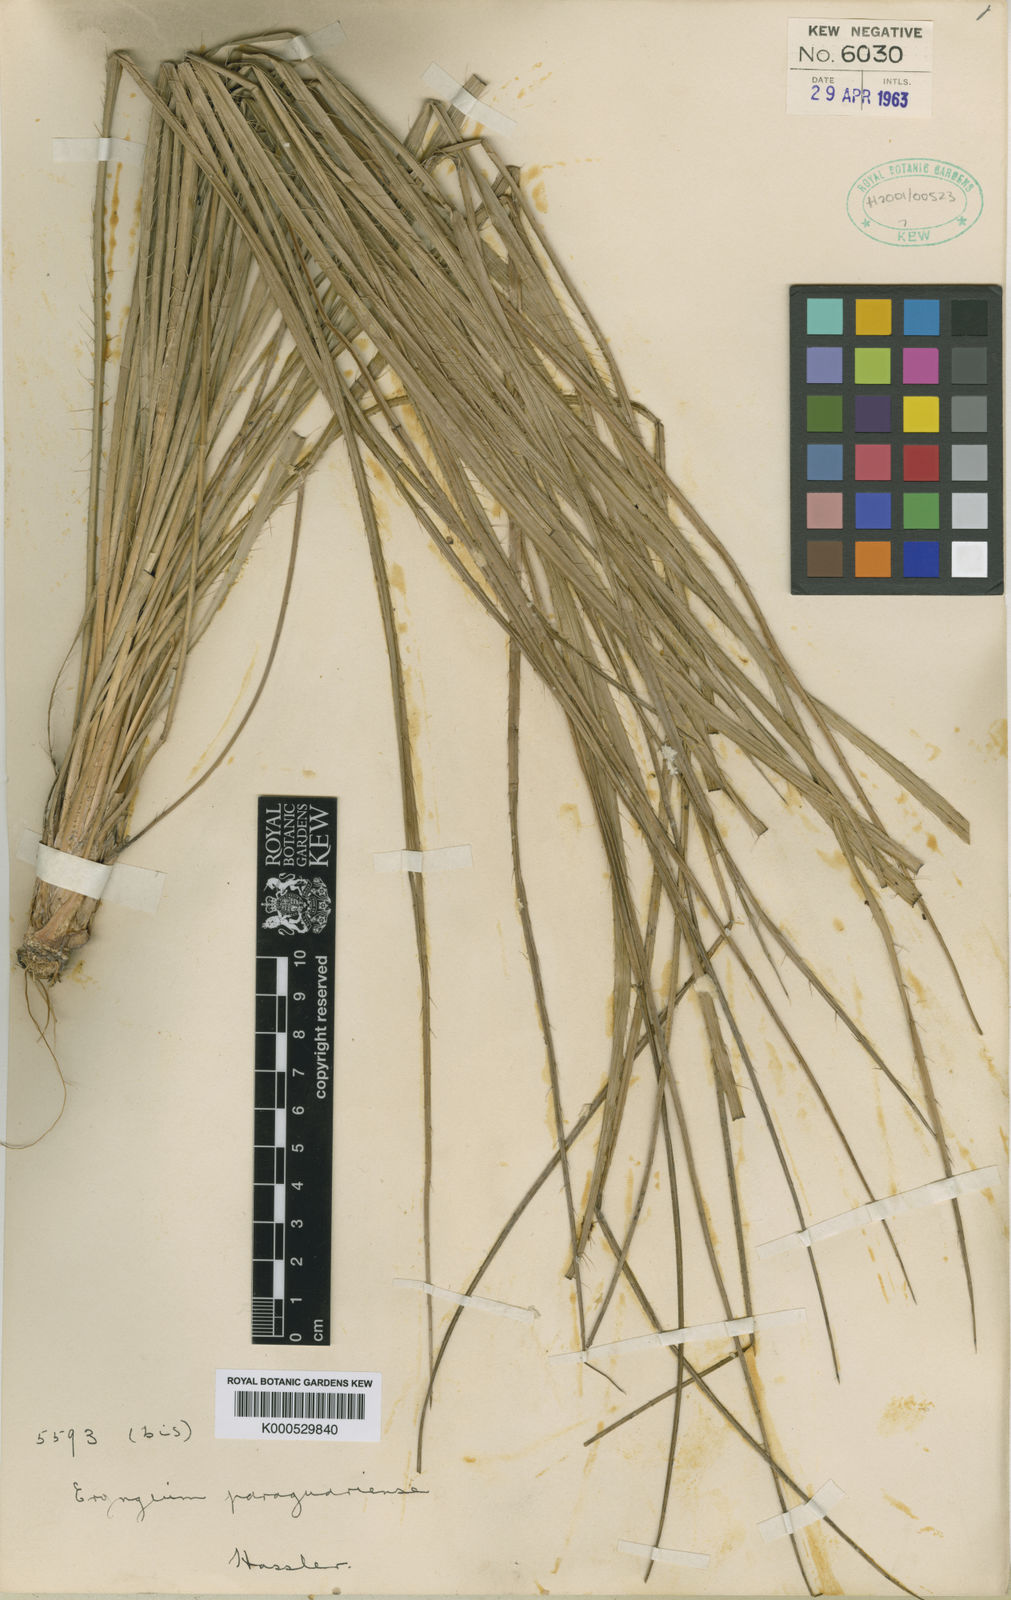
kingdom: Plantae
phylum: Tracheophyta
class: Magnoliopsida
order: Apiales
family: Apiaceae
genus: Eryngium
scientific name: Eryngium paraguariense
